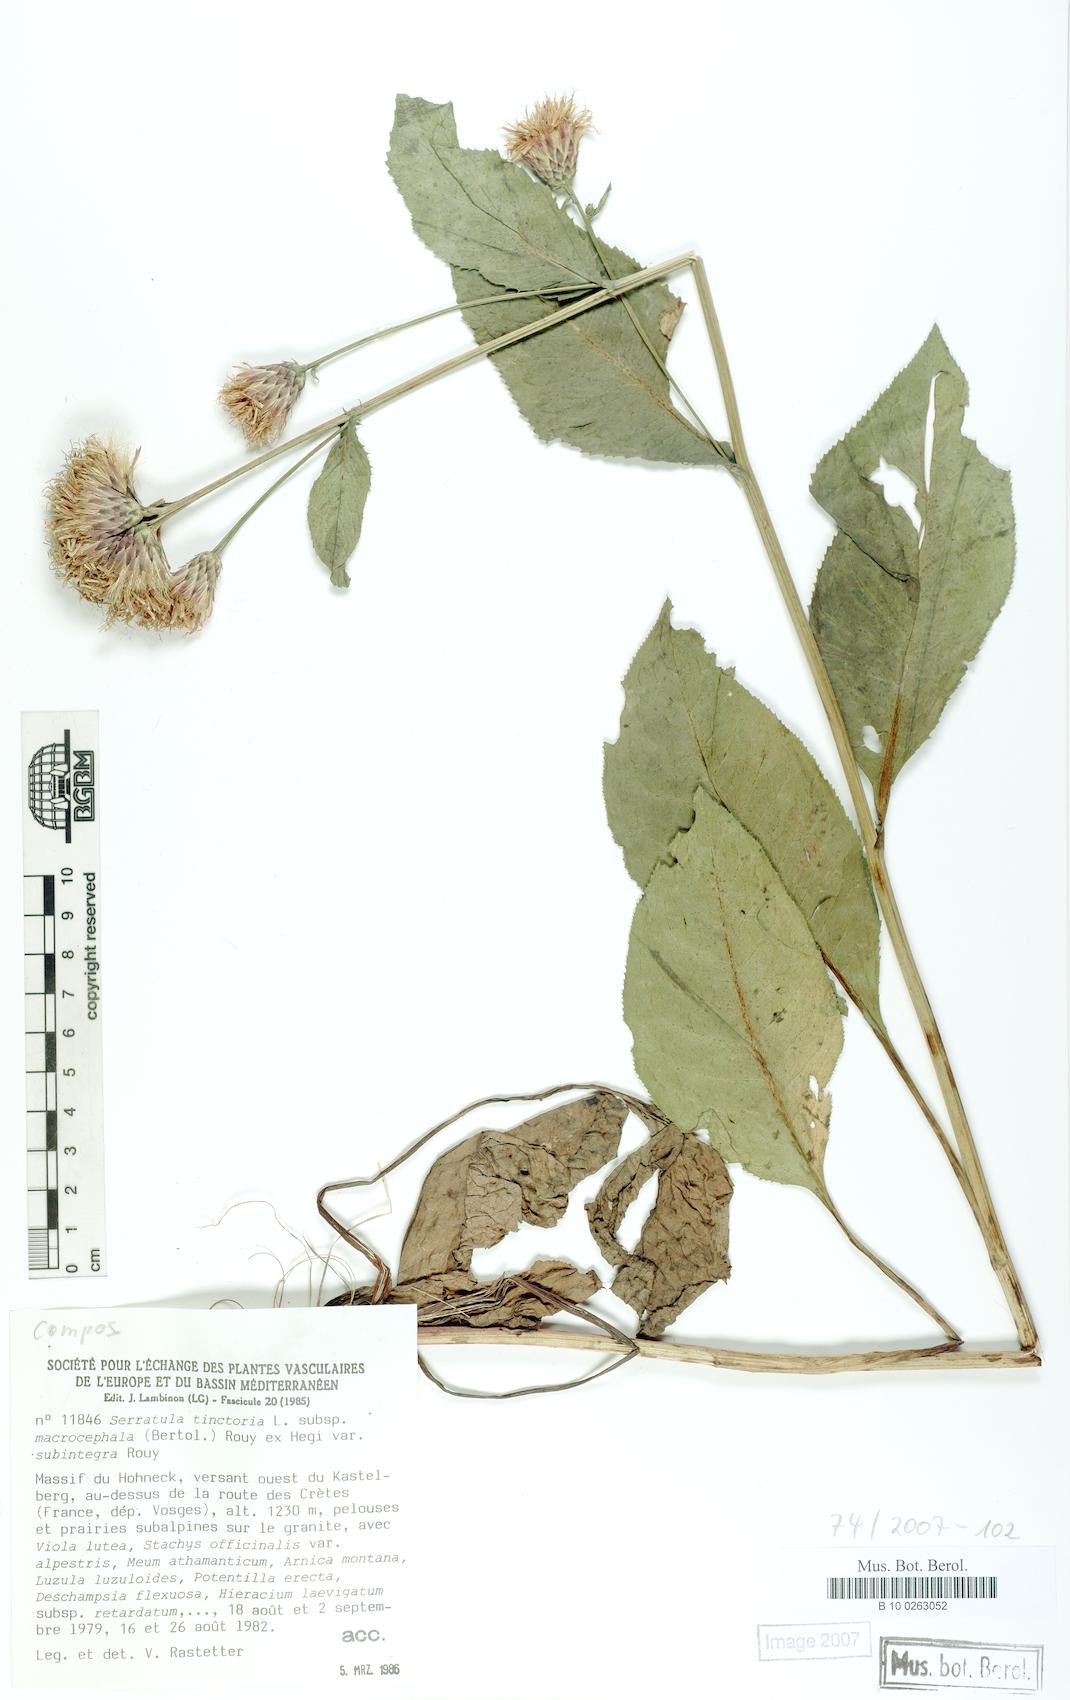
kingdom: Plantae
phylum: Tracheophyta
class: Magnoliopsida
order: Asterales
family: Asteraceae
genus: Serratula
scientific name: Serratula tinctoria
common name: Saw-wort
